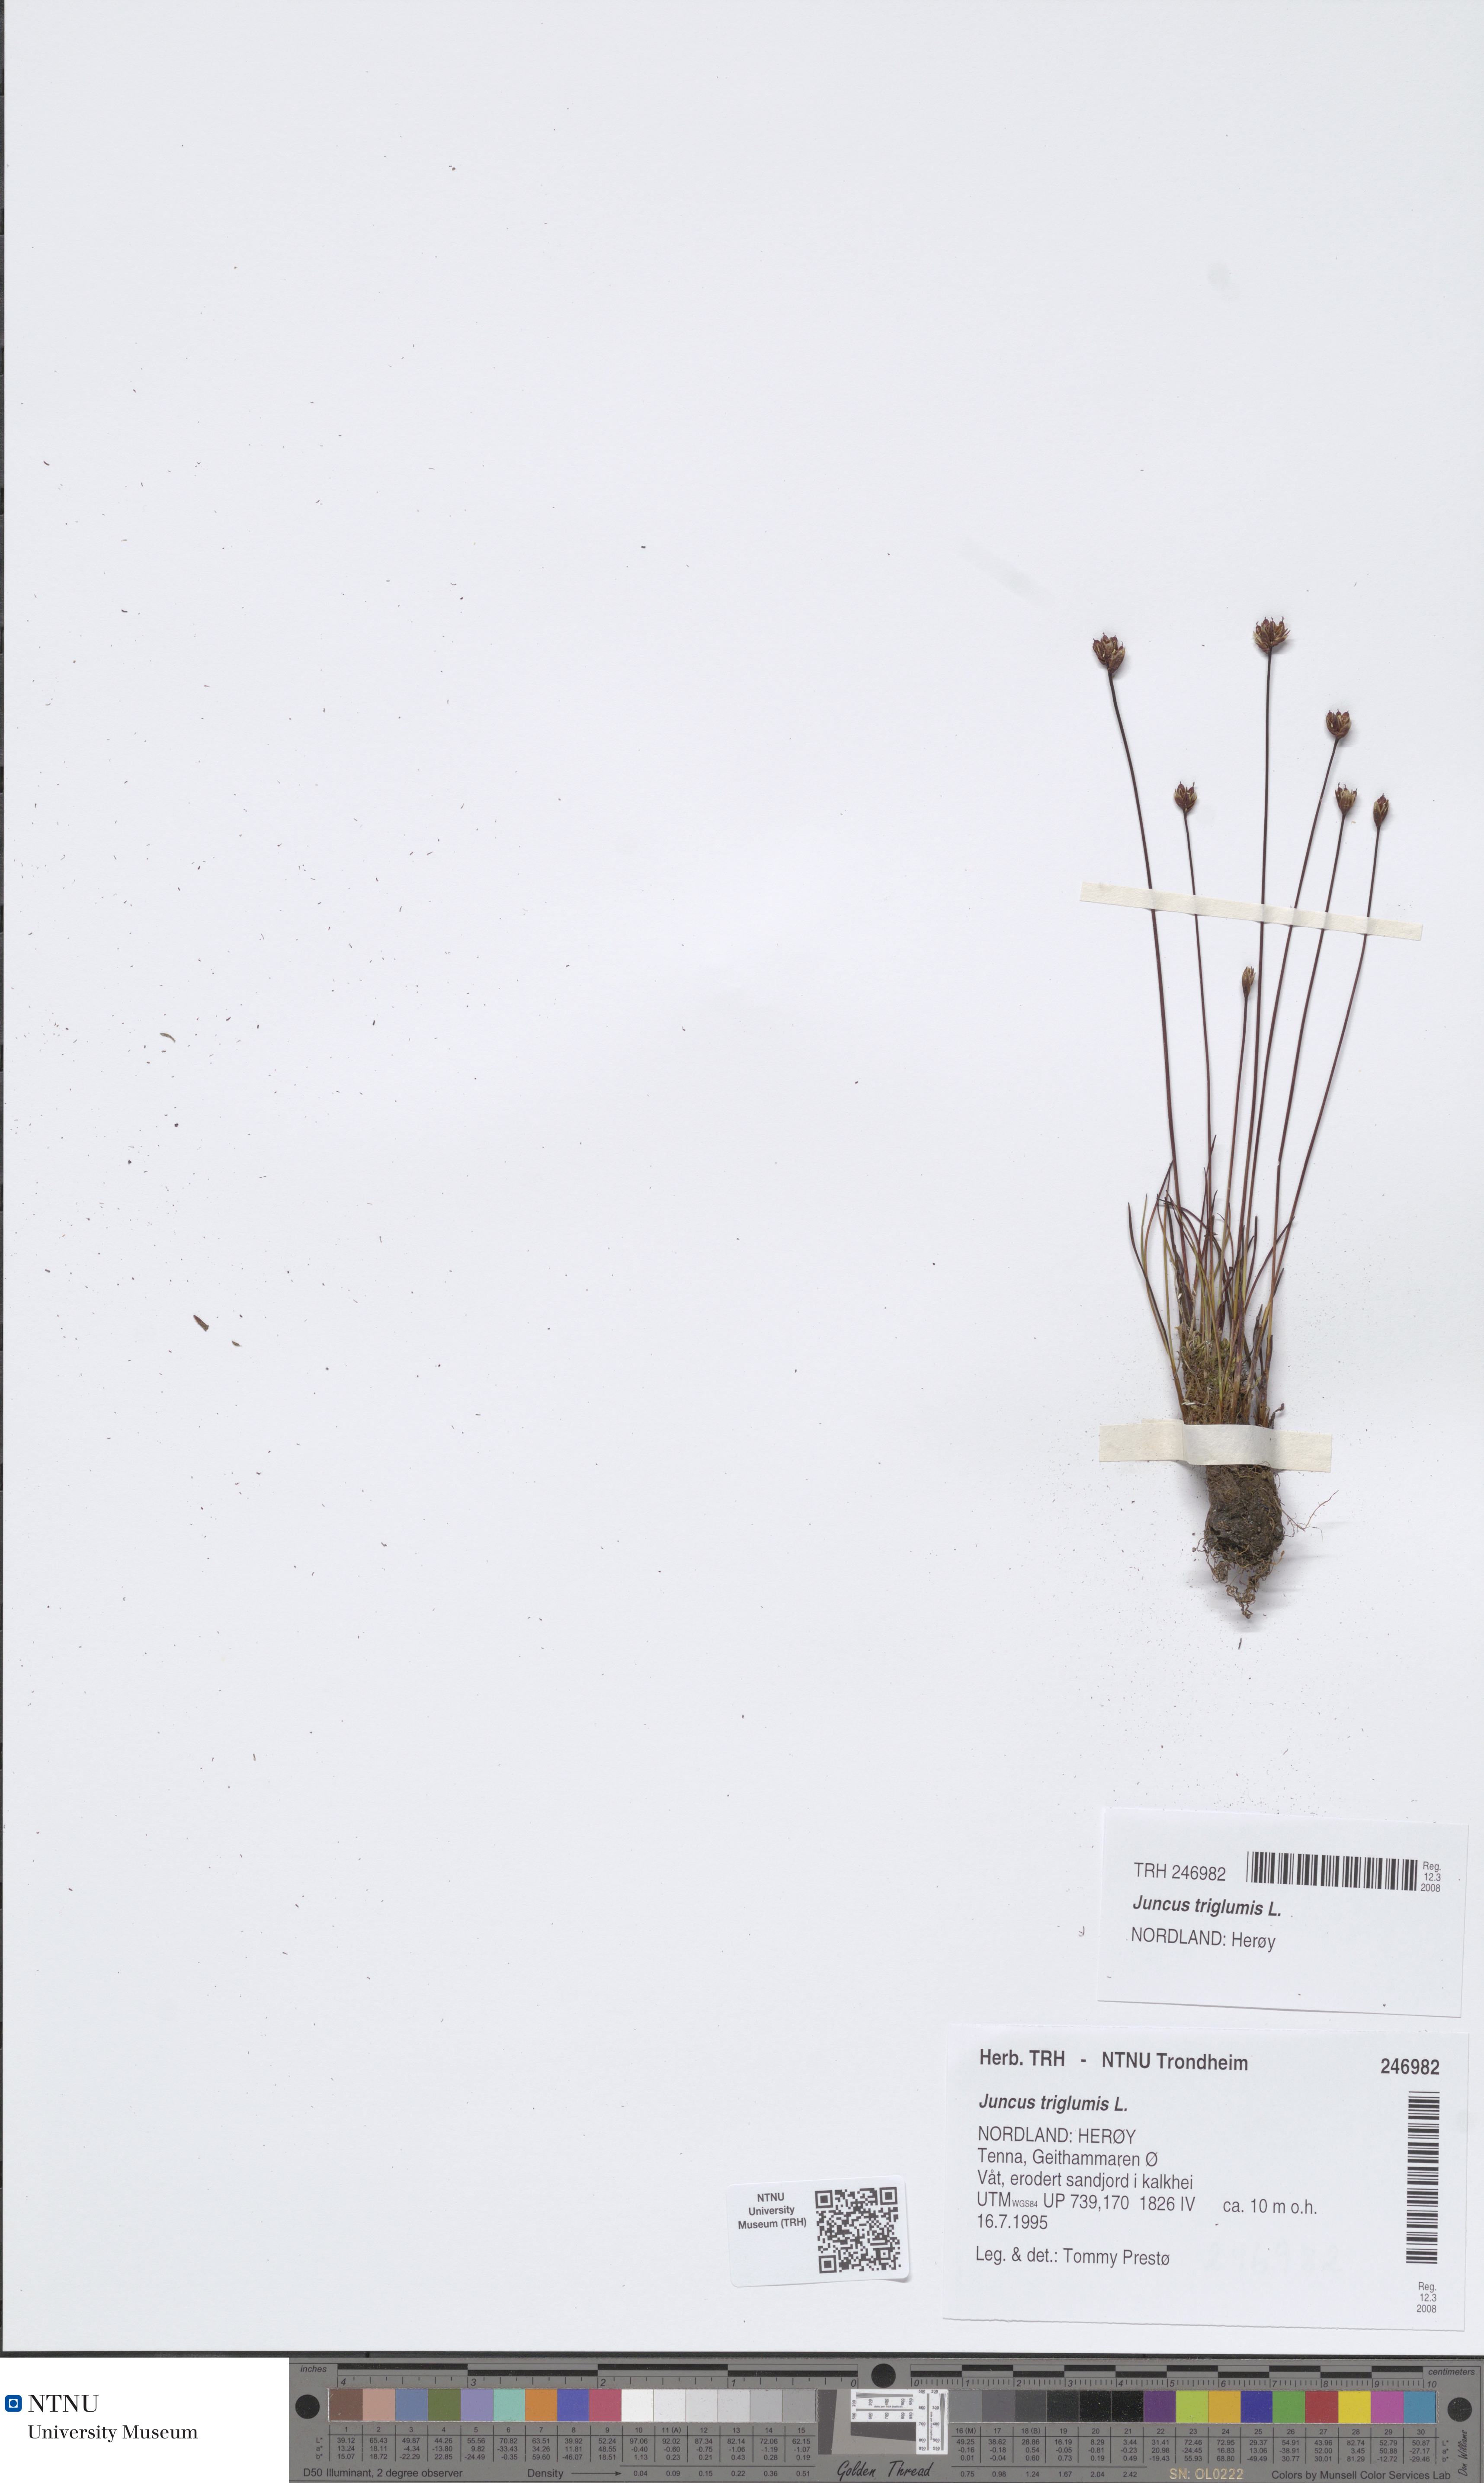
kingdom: Plantae
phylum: Tracheophyta
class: Liliopsida
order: Poales
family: Juncaceae
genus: Juncus
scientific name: Juncus triglumis
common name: Three-flowered rush
